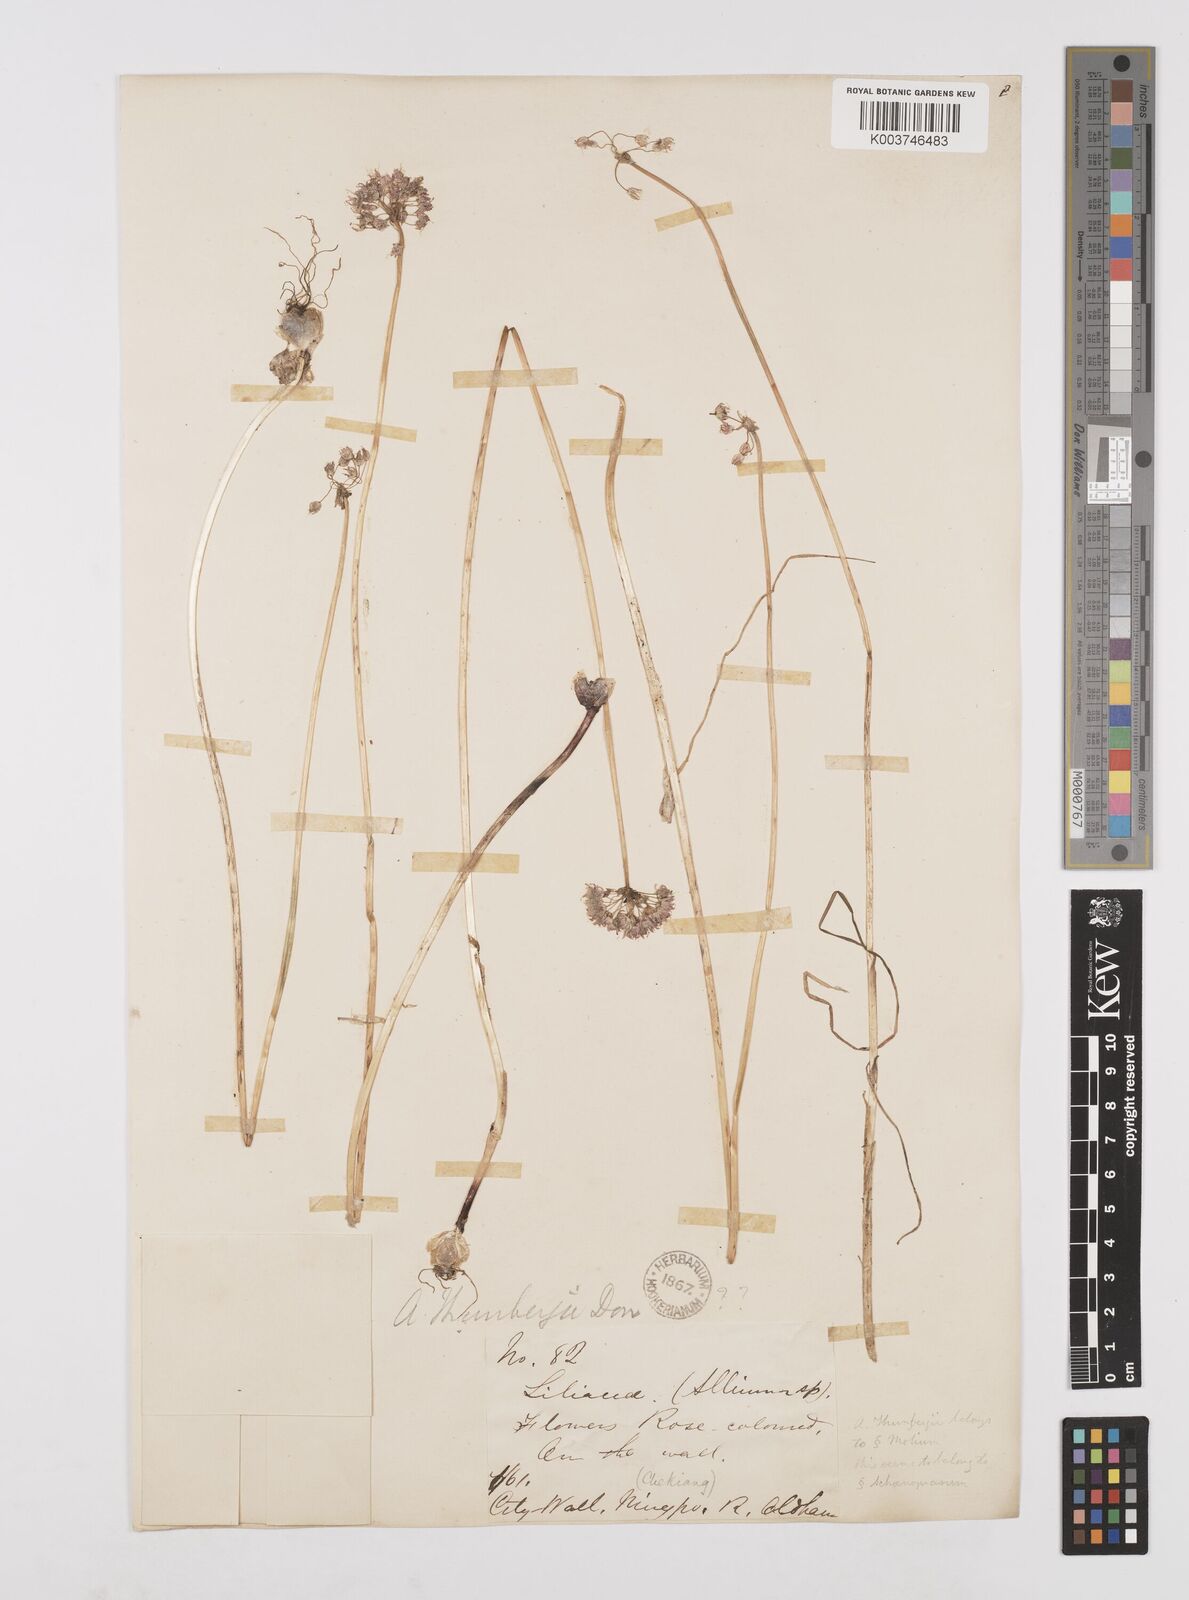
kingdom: Plantae
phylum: Tracheophyta
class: Liliopsida
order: Asparagales
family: Amaryllidaceae
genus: Allium
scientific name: Allium macrostemon
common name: Chinese garlic
